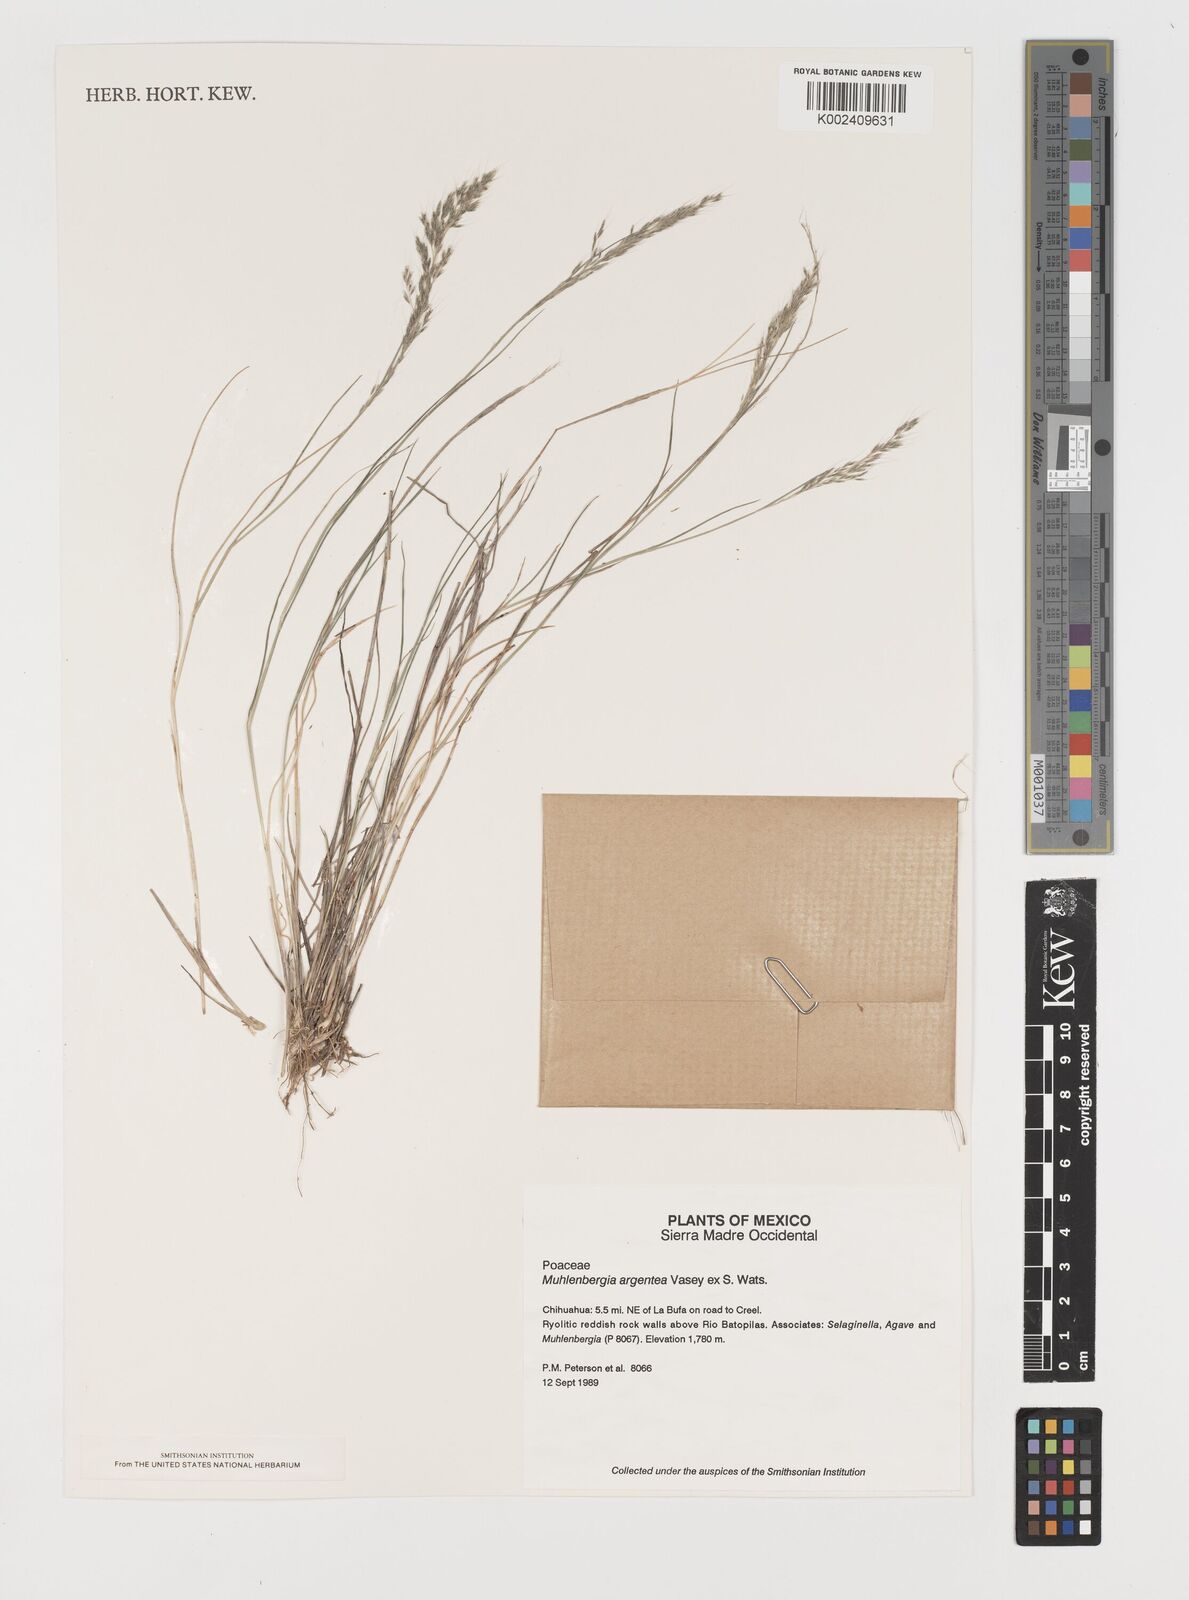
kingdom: Plantae
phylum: Tracheophyta
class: Liliopsida
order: Poales
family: Poaceae
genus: Muhlenbergia
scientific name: Muhlenbergia argentea
